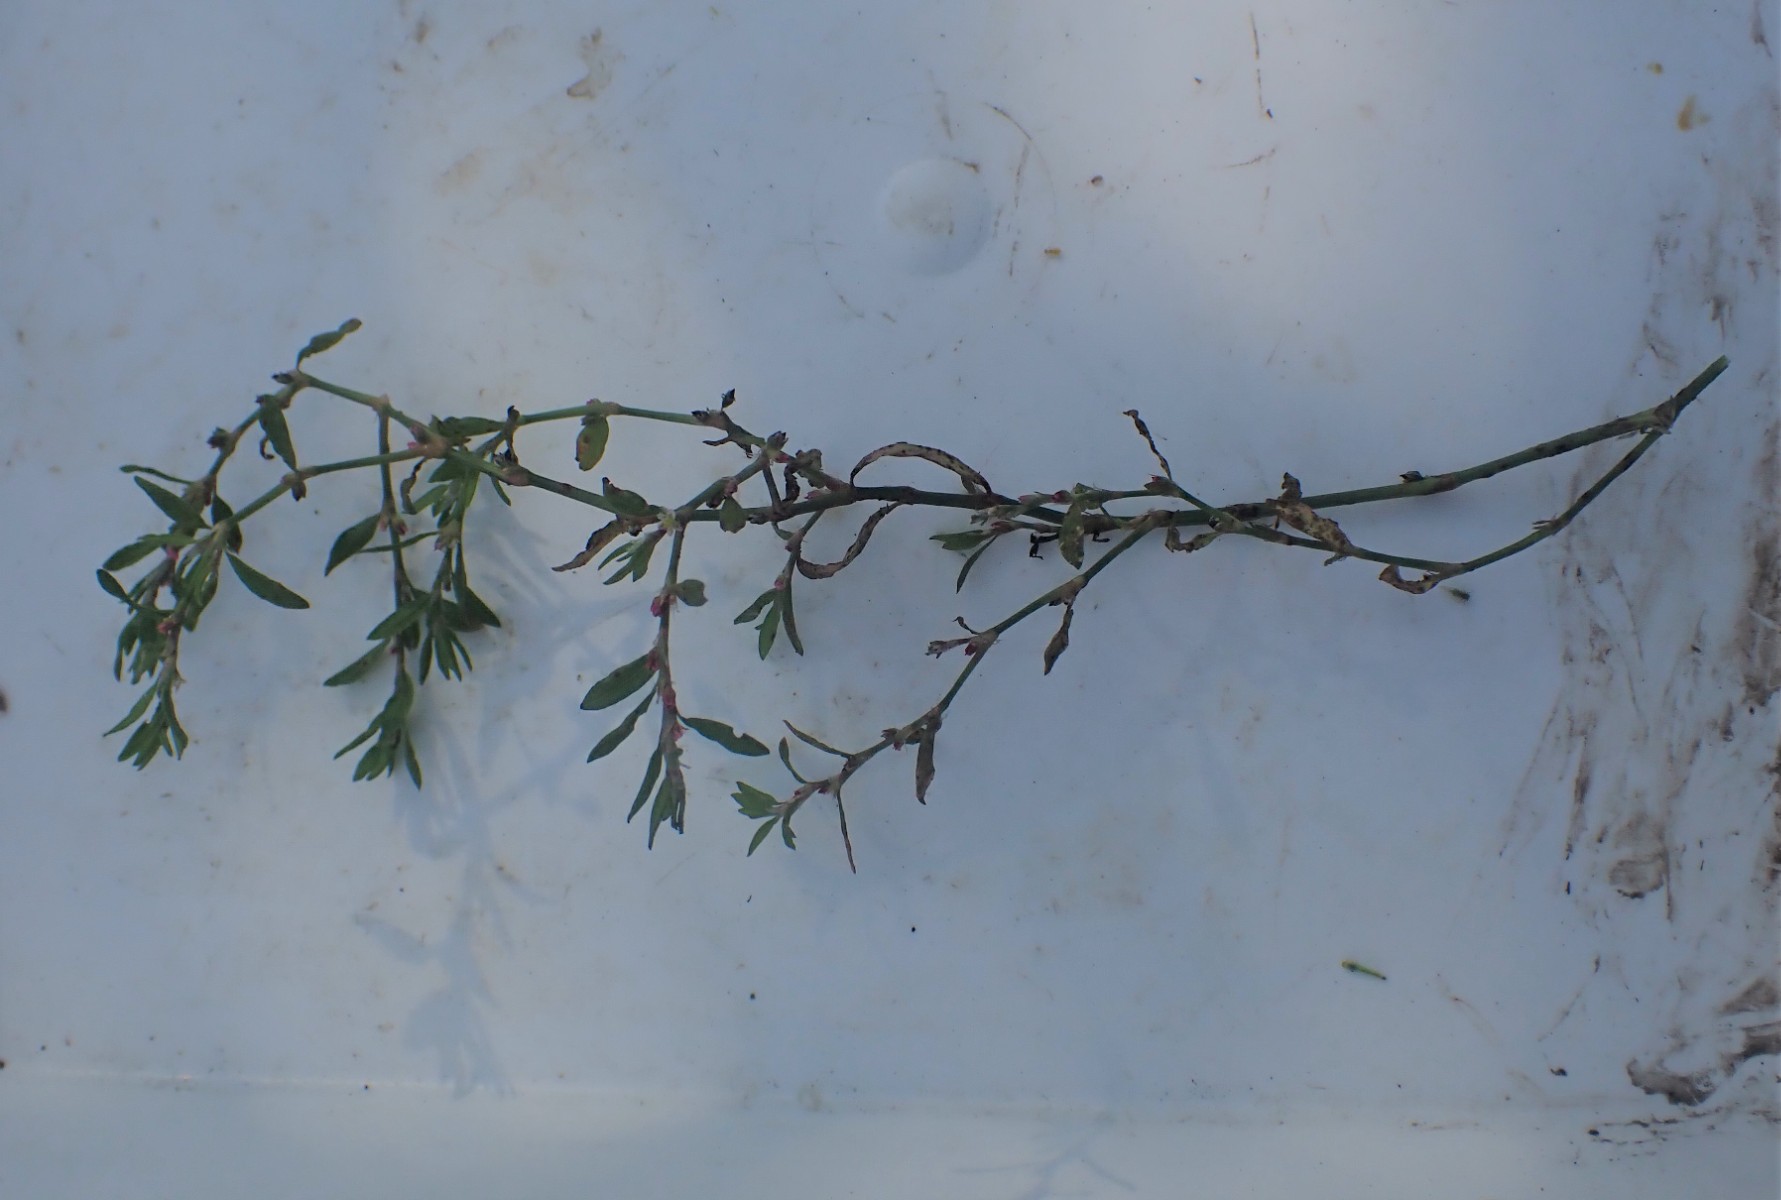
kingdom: Fungi
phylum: Basidiomycota
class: Pucciniomycetes
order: Pucciniales
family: Pucciniaceae
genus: Uromyces
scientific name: Uromyces polygoni-avicularis
